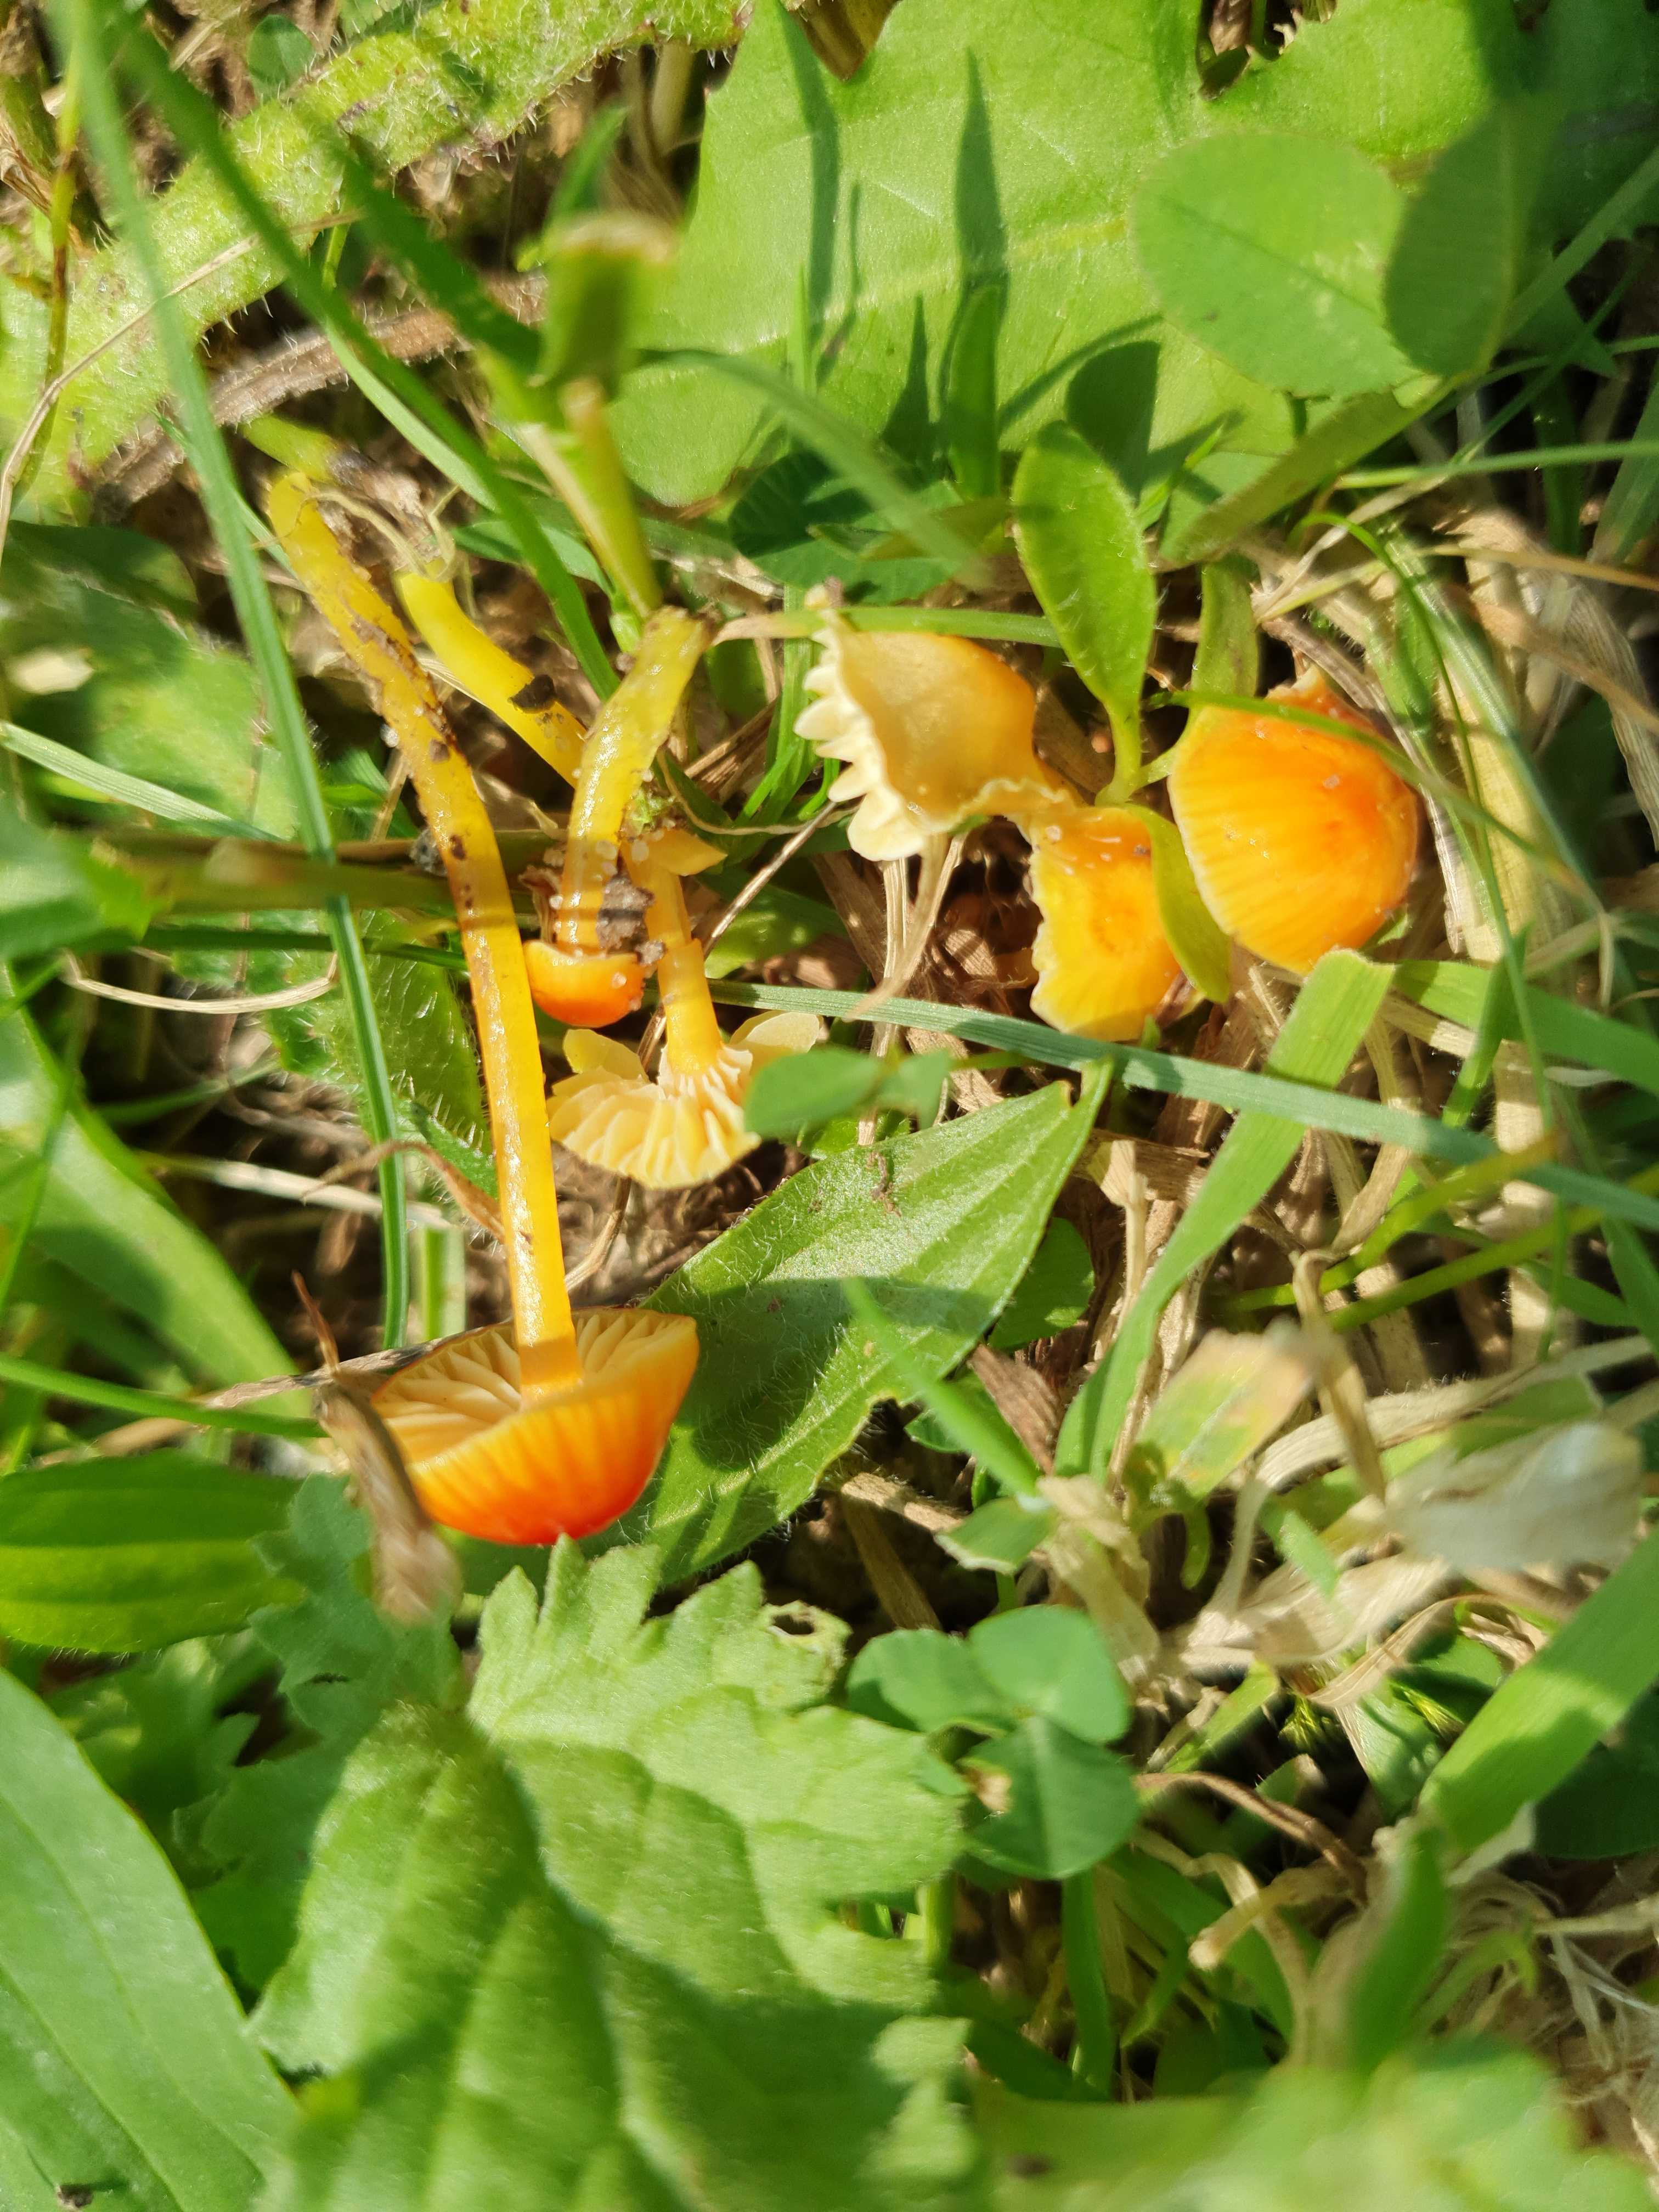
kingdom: Fungi
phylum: Basidiomycota
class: Agaricomycetes
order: Agaricales
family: Hygrophoraceae
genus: Hygrocybe
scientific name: Hygrocybe glutinipes
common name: slimstokket vokshat
